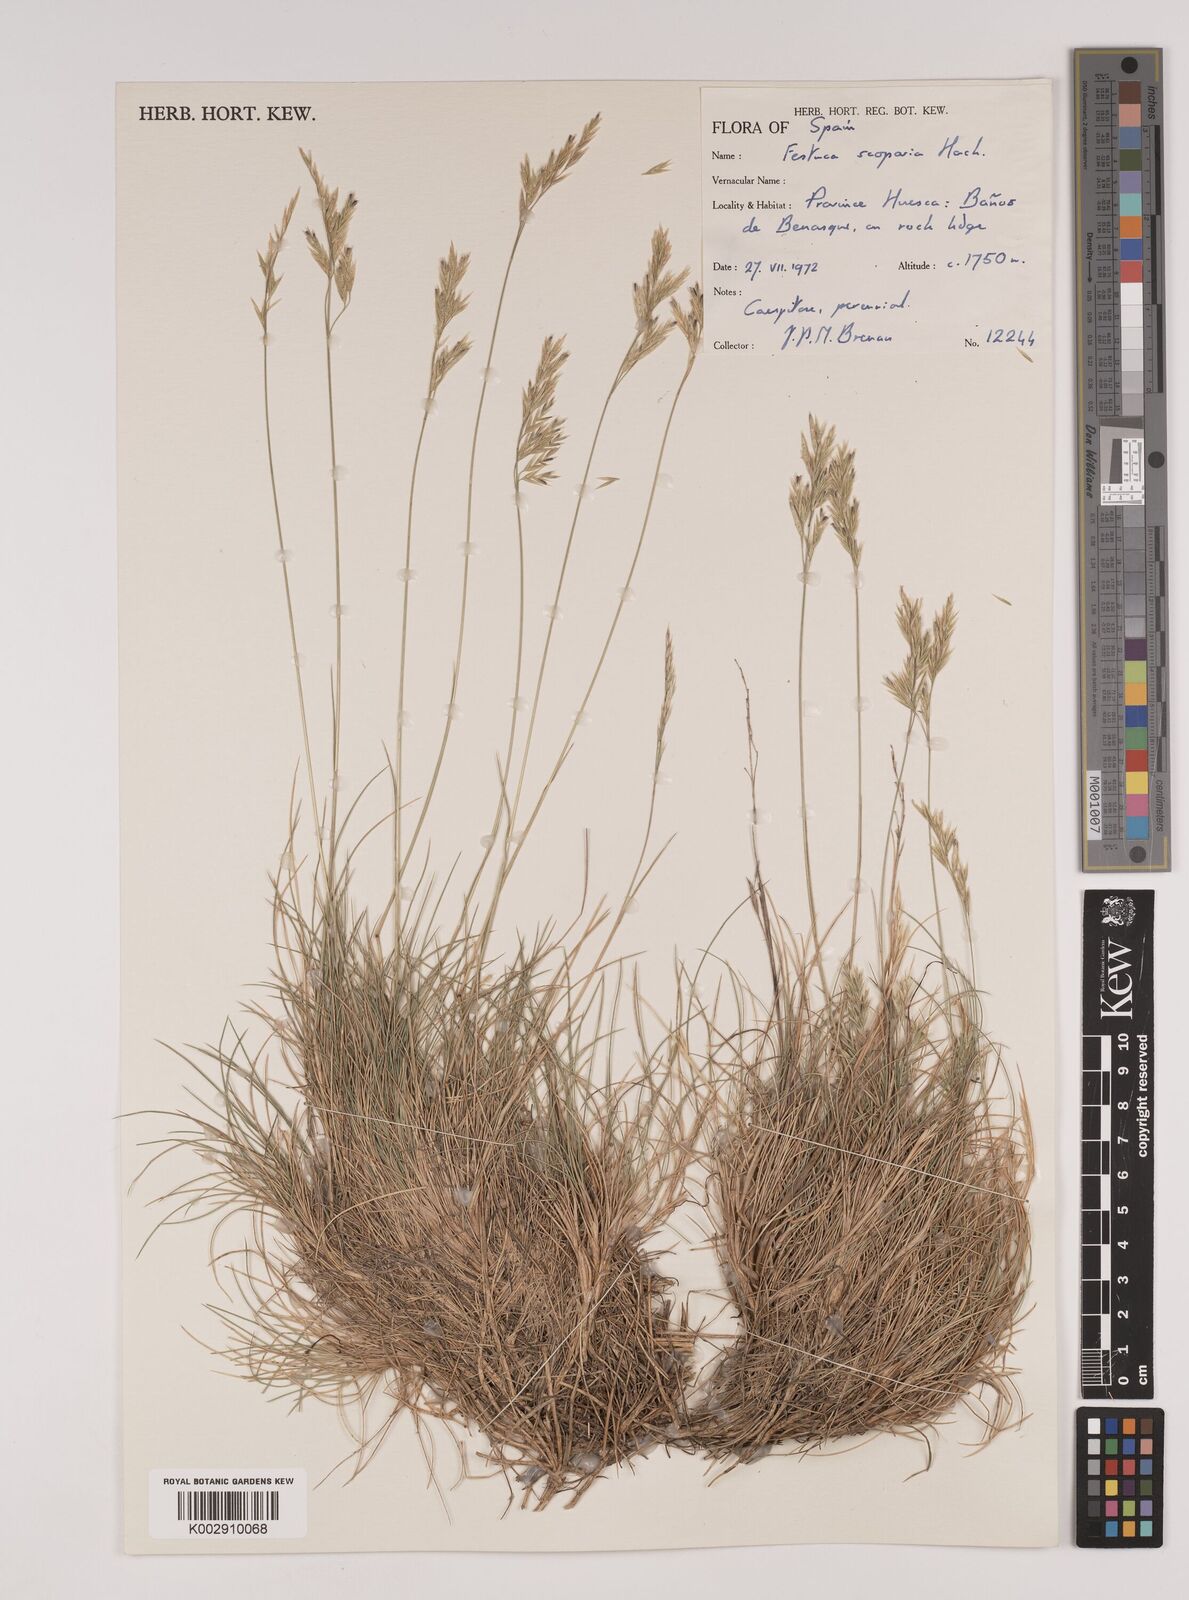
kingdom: Plantae
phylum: Tracheophyta
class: Liliopsida
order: Poales
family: Poaceae
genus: Festuca
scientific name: Festuca gautieri
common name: Spiky fescue
